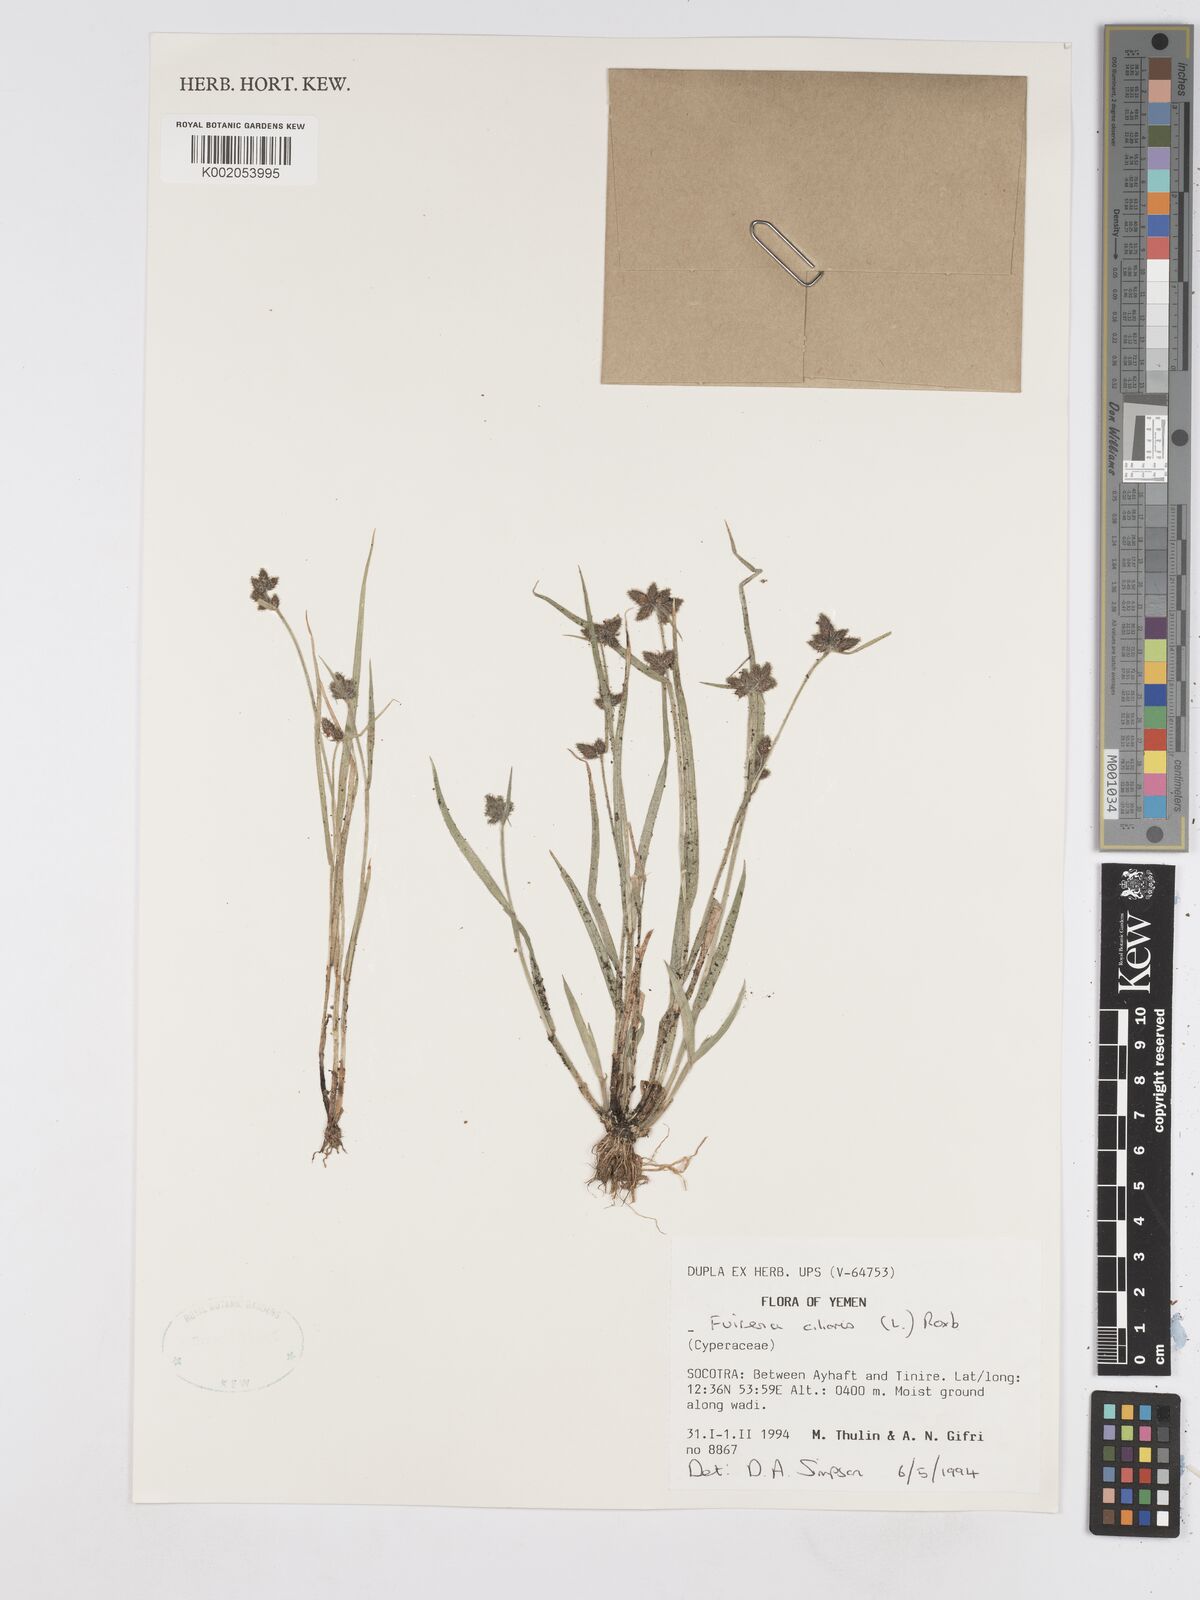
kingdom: Plantae
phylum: Tracheophyta
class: Liliopsida
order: Poales
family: Cyperaceae
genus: Fuirena
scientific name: Fuirena ciliaris
